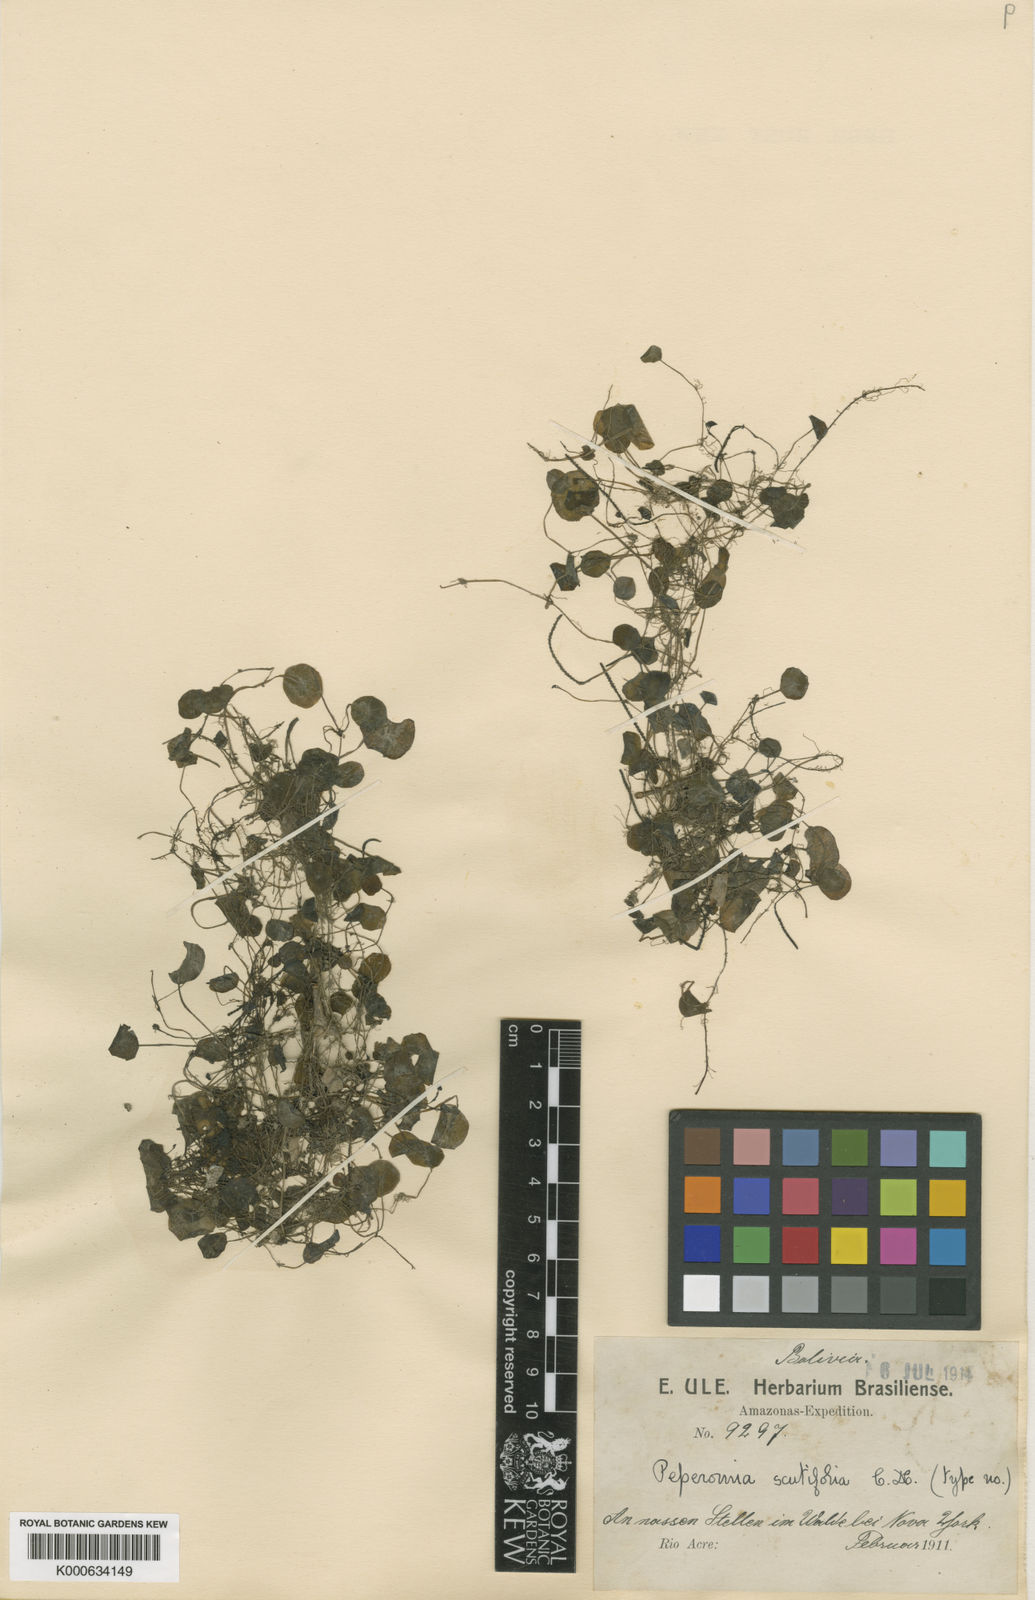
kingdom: Plantae
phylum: Tracheophyta
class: Magnoliopsida
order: Piperales
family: Piperaceae
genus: Peperomia
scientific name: Peperomia scutifolia
